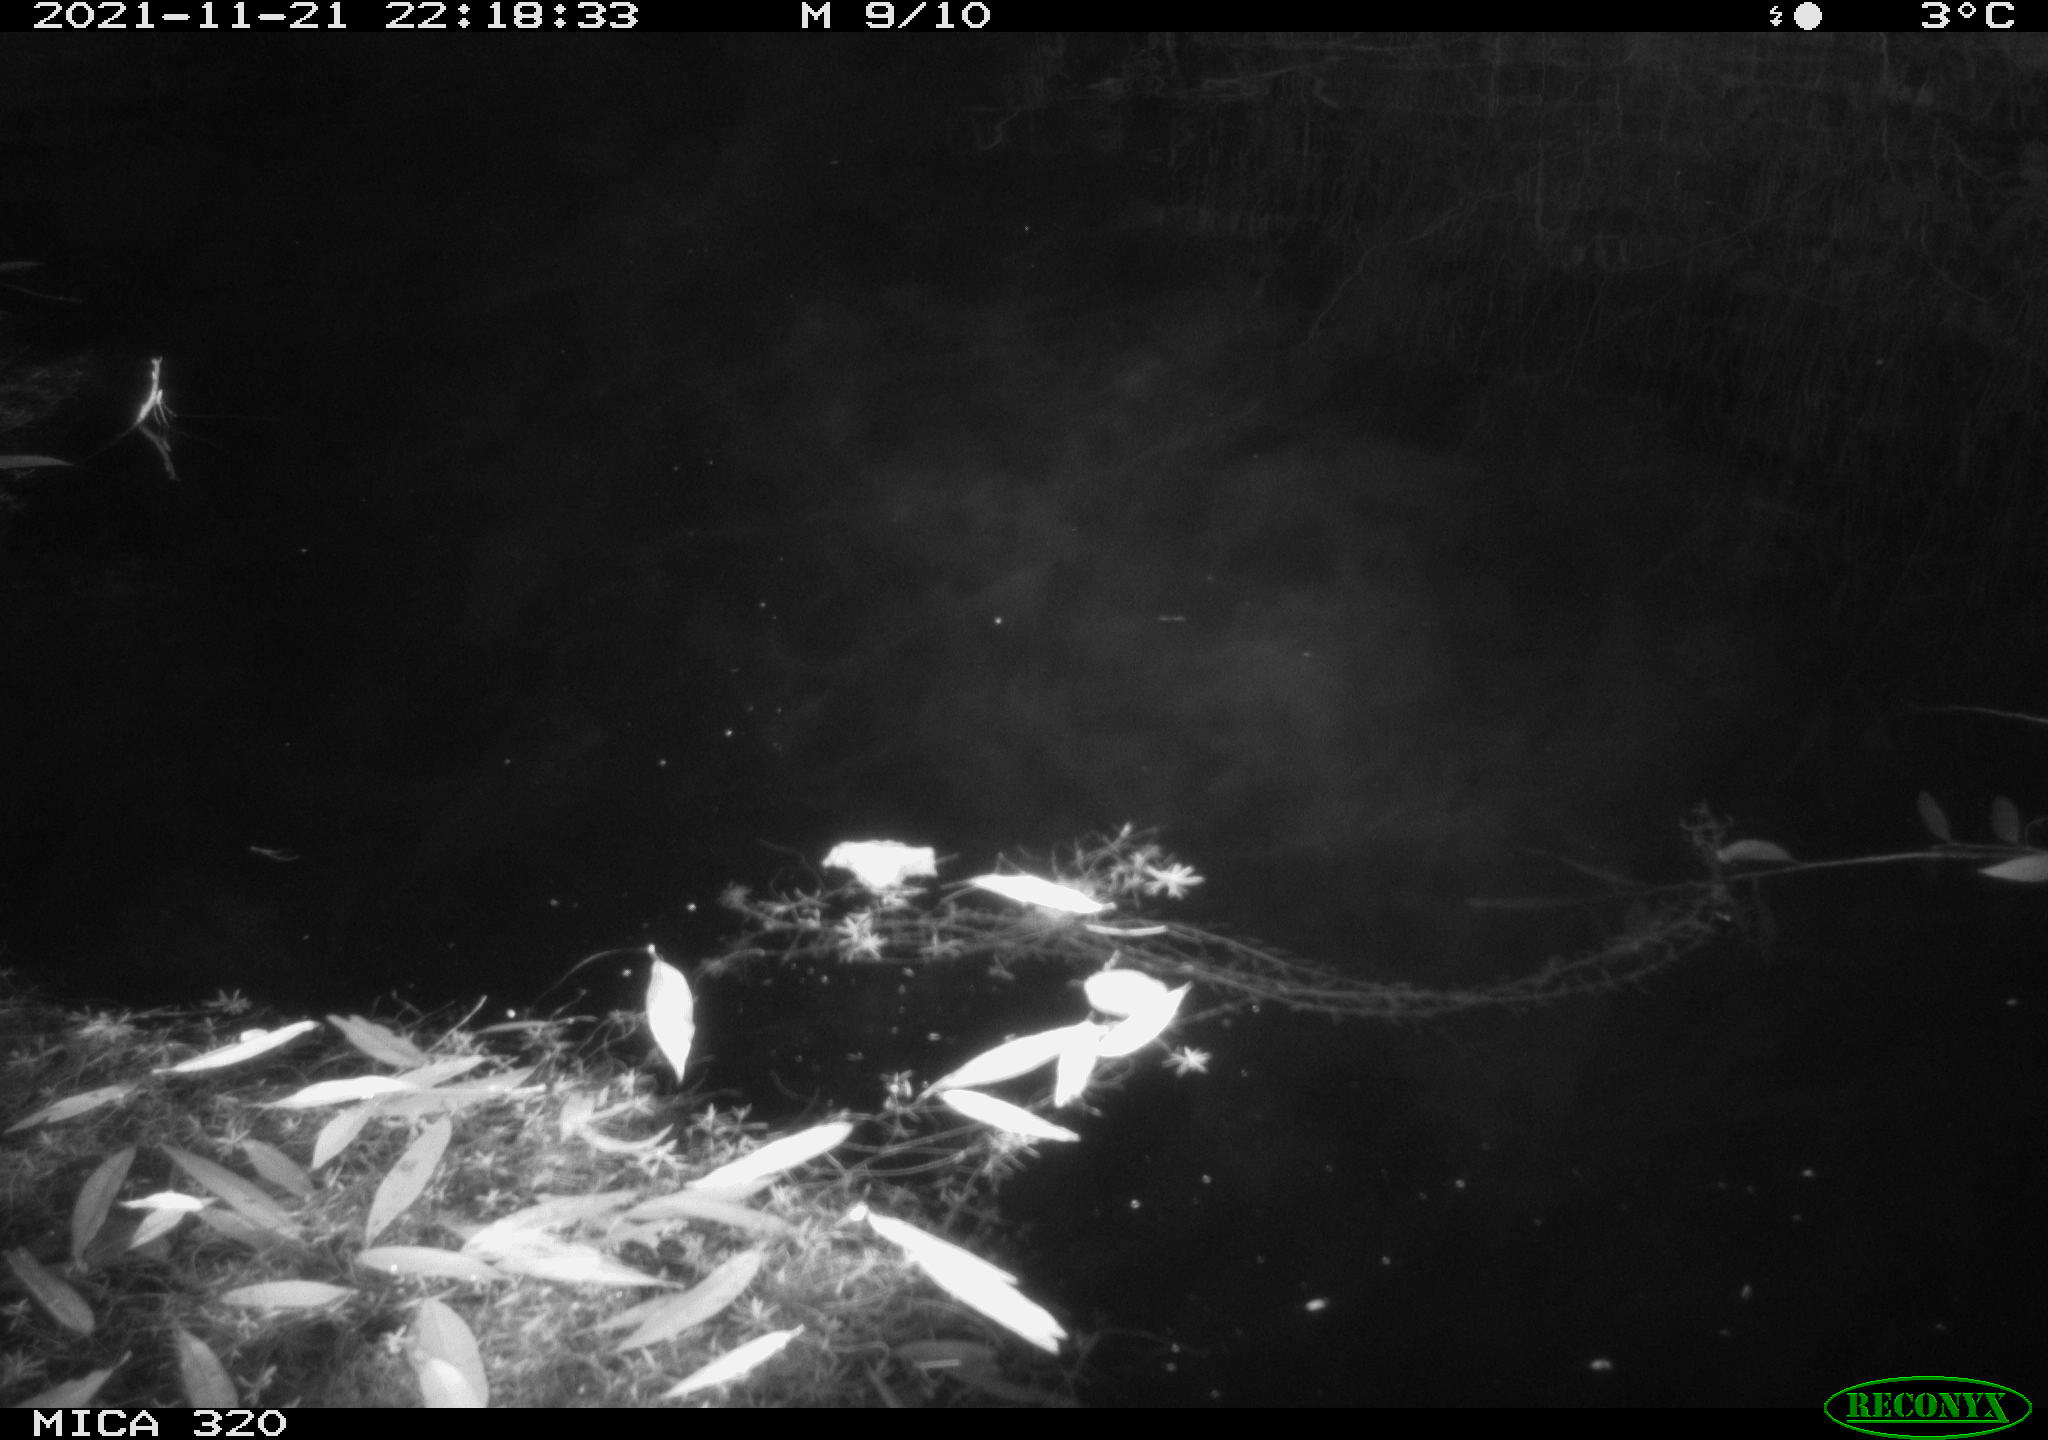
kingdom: Animalia
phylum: Chordata
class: Mammalia
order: Rodentia
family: Muridae
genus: Rattus
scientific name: Rattus norvegicus
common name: Brown rat
